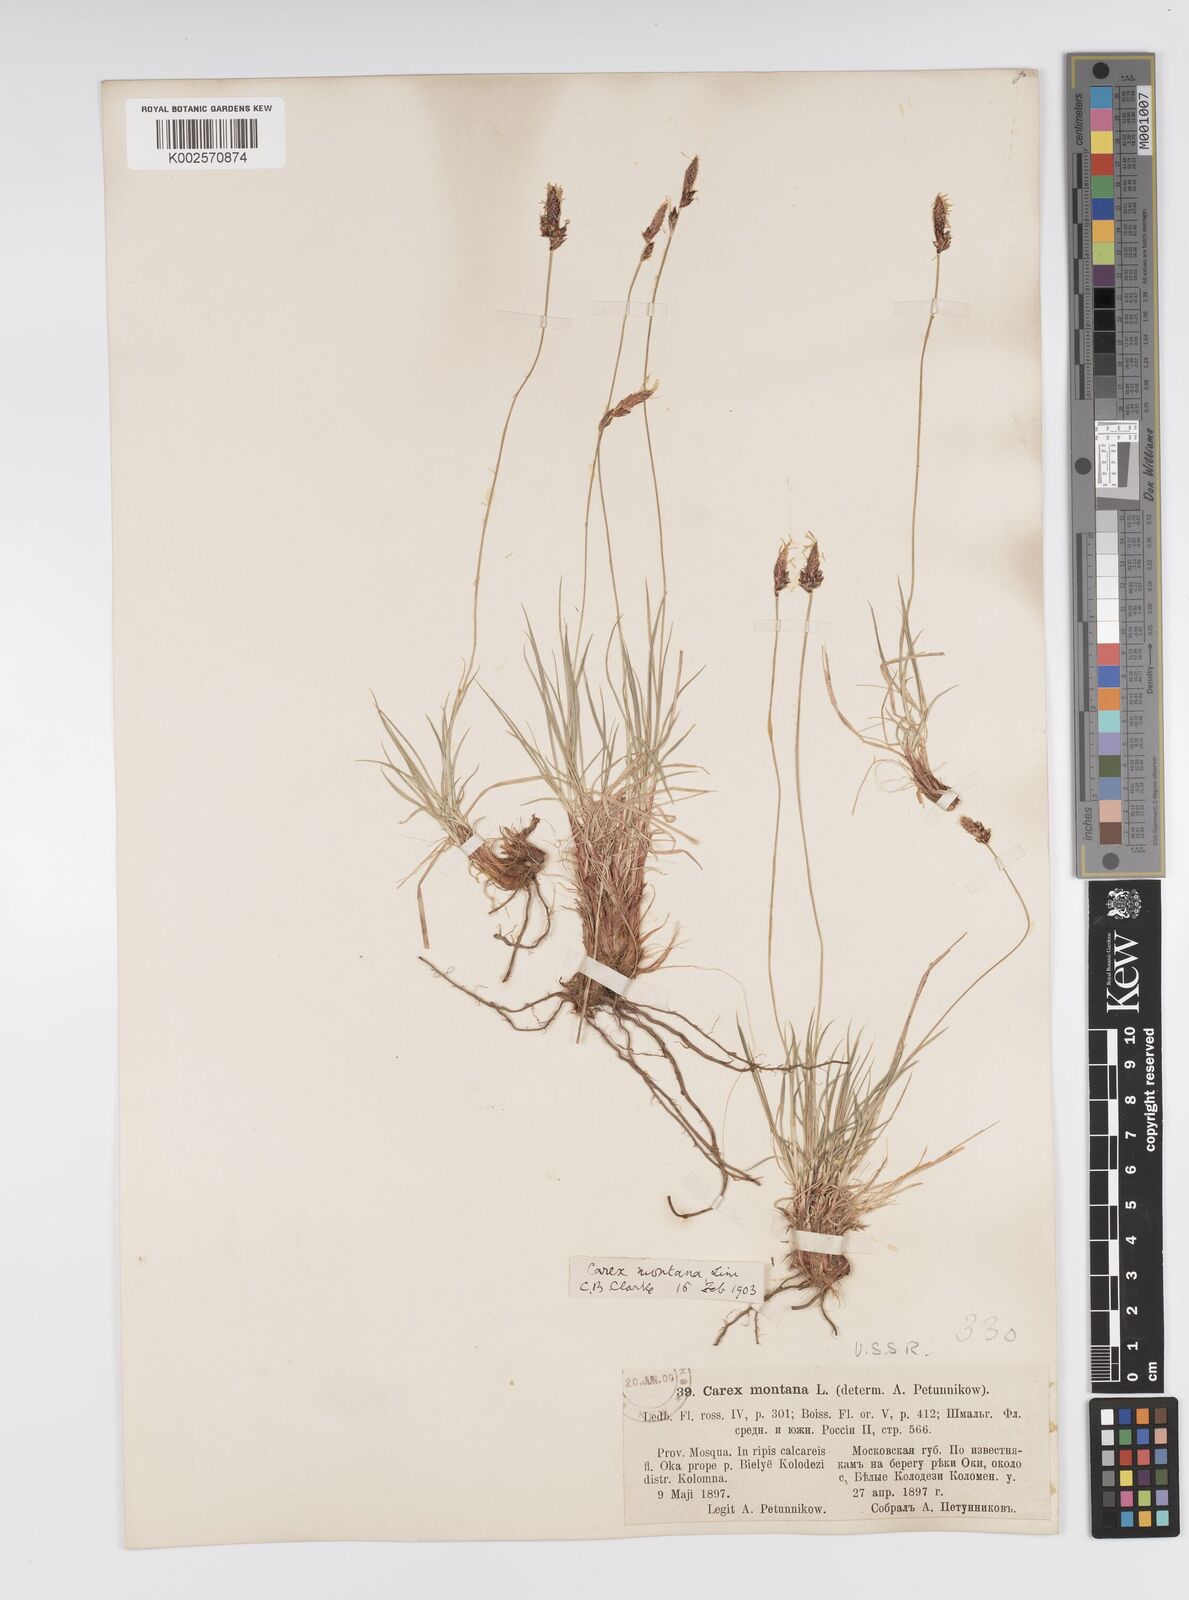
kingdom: Plantae
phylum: Tracheophyta
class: Liliopsida
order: Poales
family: Cyperaceae
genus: Carex
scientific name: Carex montana
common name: Soft-leaved sedge
